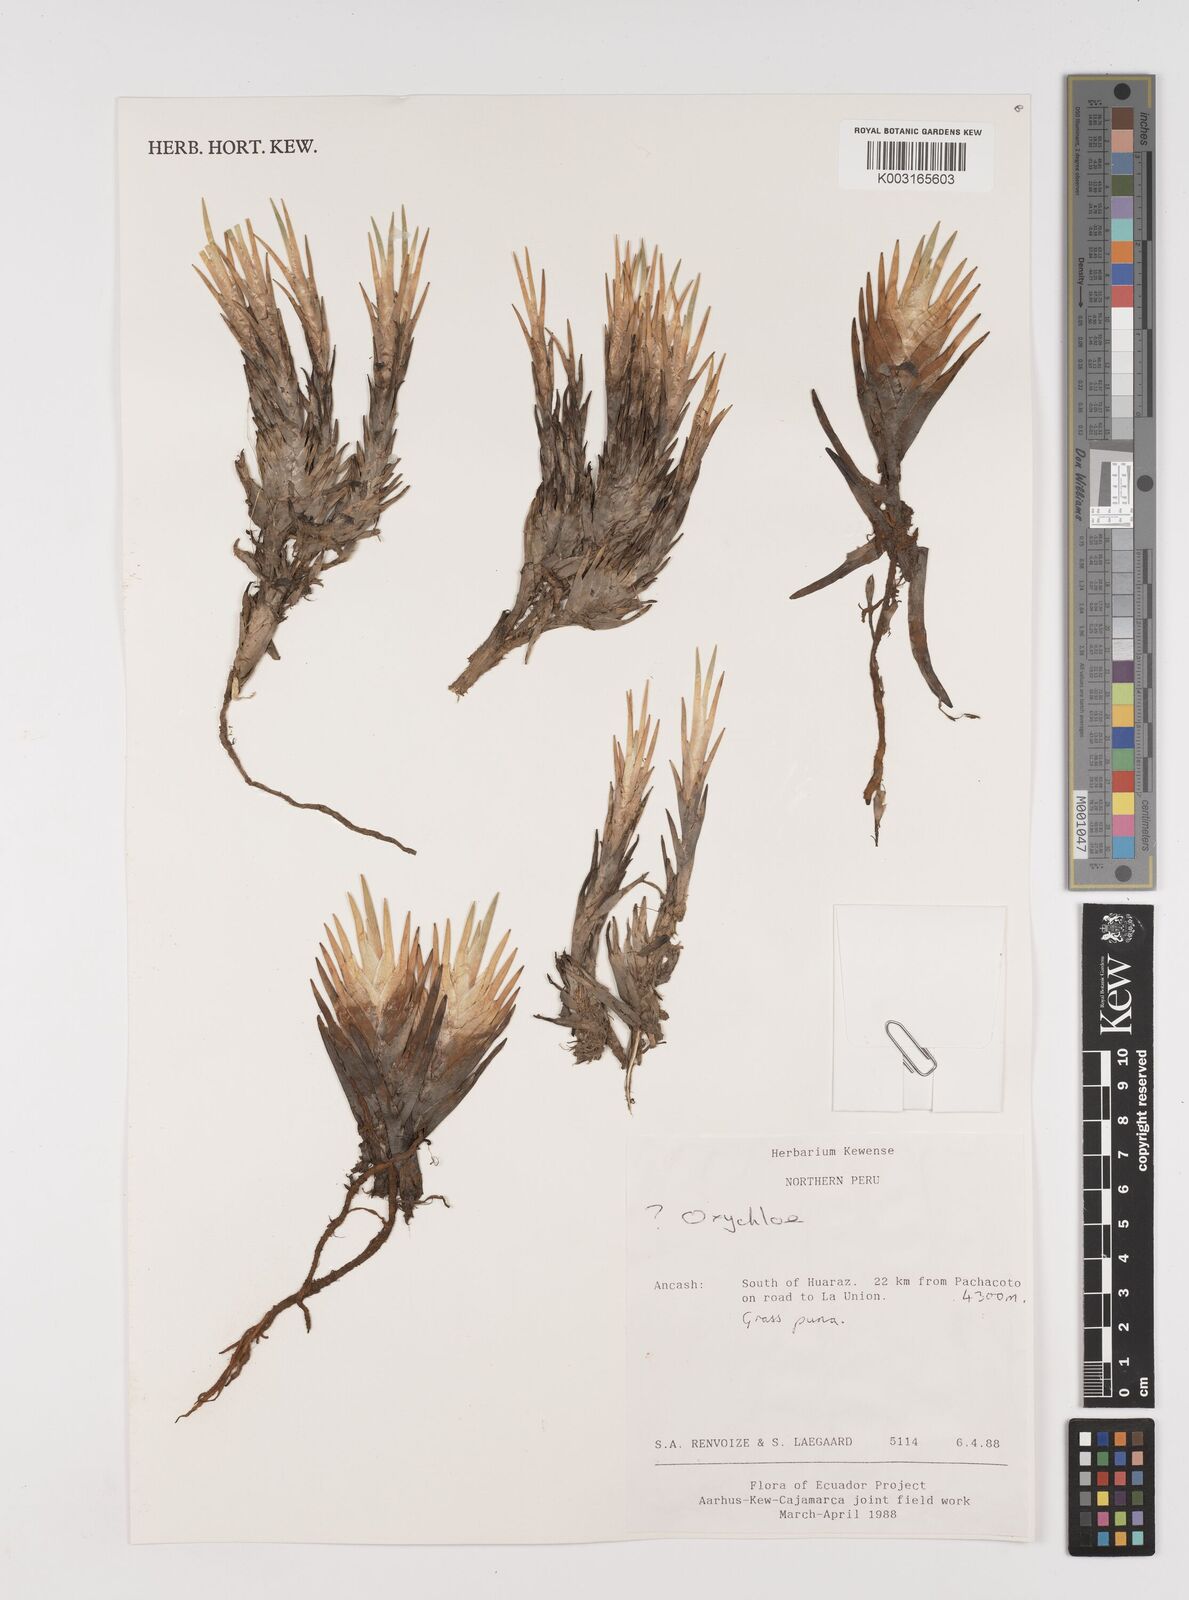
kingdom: Plantae
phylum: Tracheophyta
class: Liliopsida
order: Poales
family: Juncaceae
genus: Oxychloe
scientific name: Oxychloe
